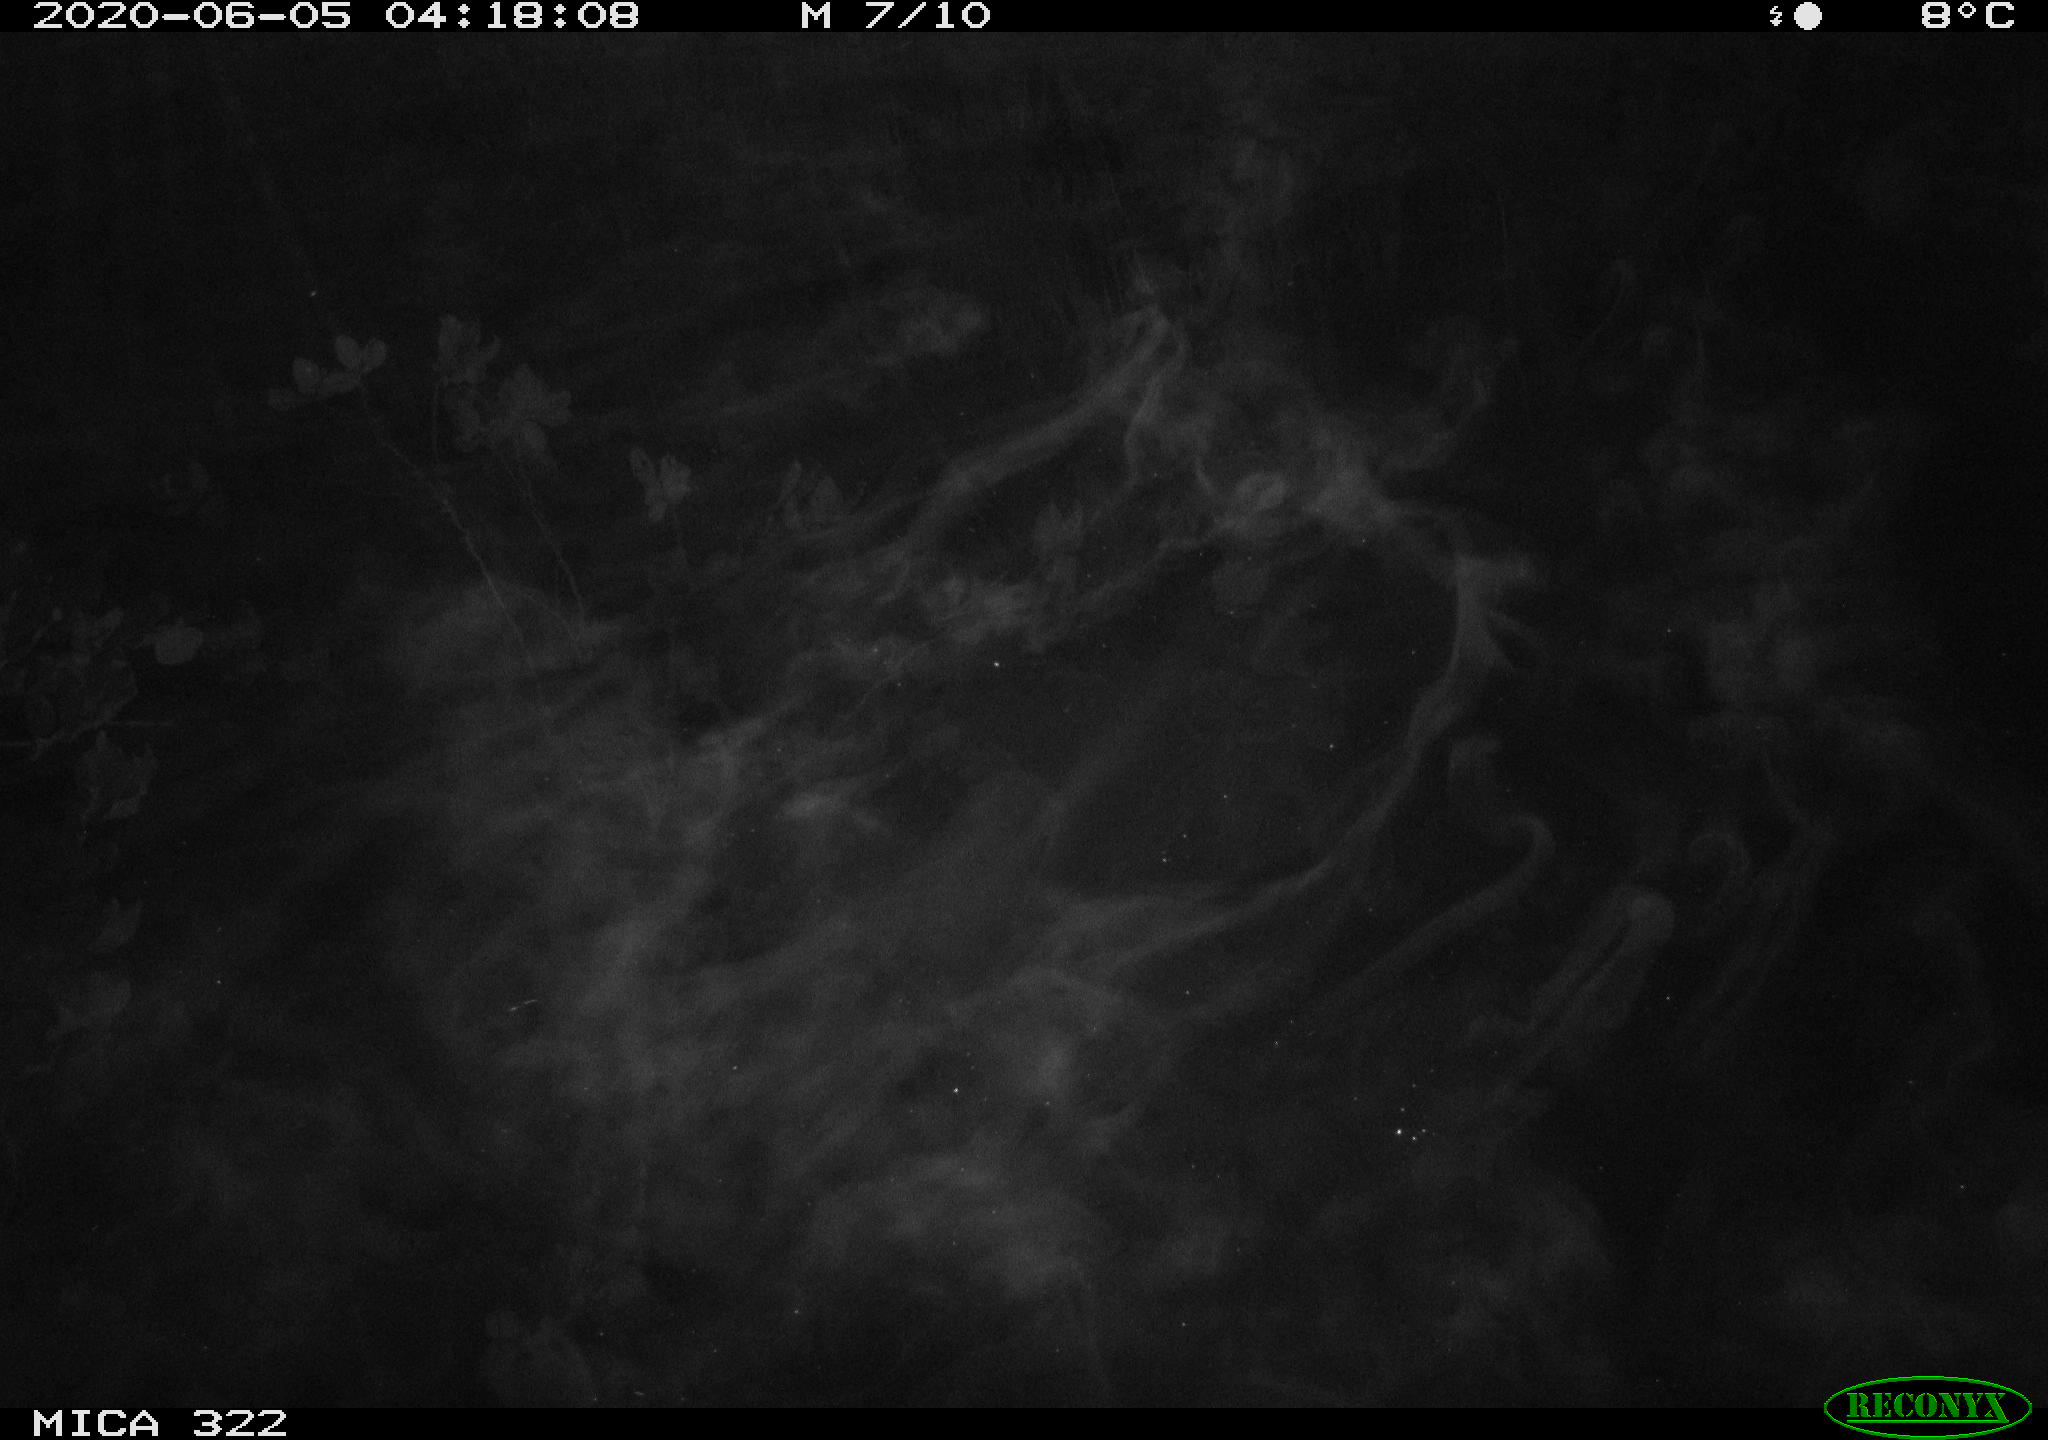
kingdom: Animalia
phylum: Chordata
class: Aves
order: Anseriformes
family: Anatidae
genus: Anas
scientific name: Anas platyrhynchos
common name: Mallard
